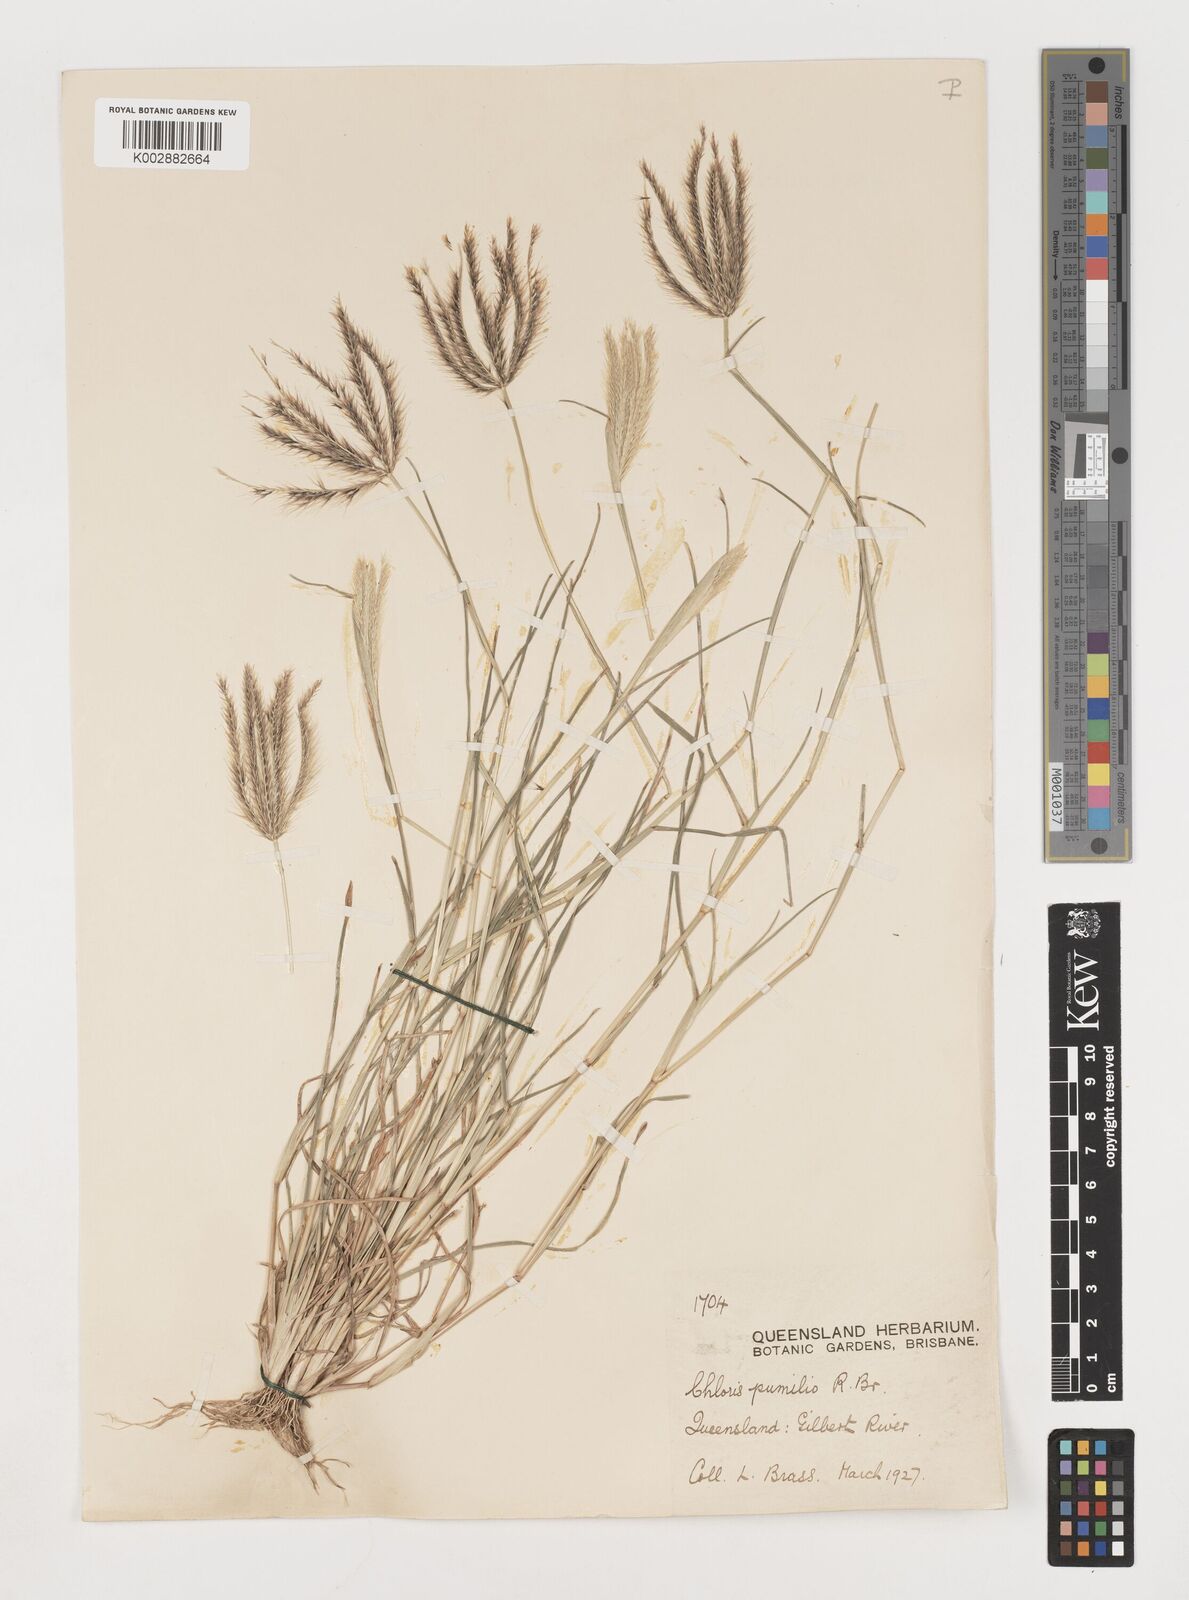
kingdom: Plantae
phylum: Tracheophyta
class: Liliopsida
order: Poales
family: Poaceae
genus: Chloris
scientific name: Chloris lobata
